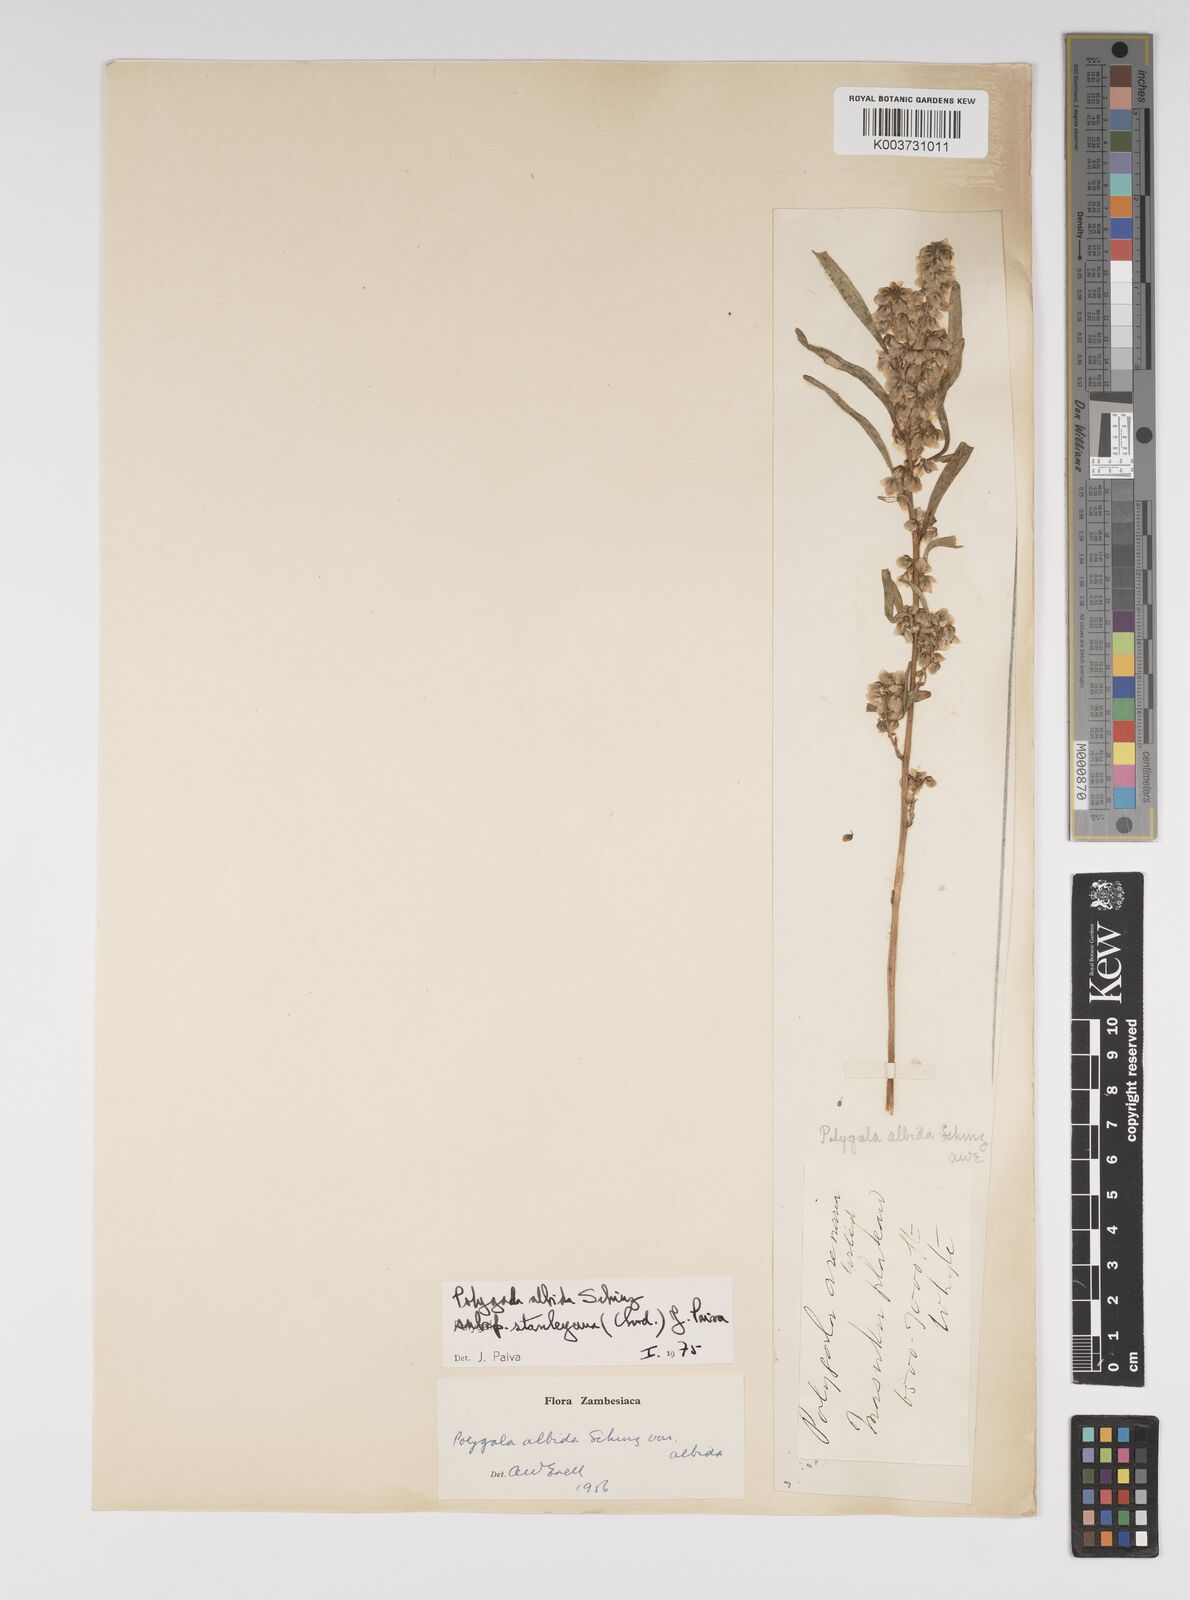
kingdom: Plantae
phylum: Tracheophyta
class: Magnoliopsida
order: Fabales
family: Polygalaceae
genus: Polygala
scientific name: Polygala albida
